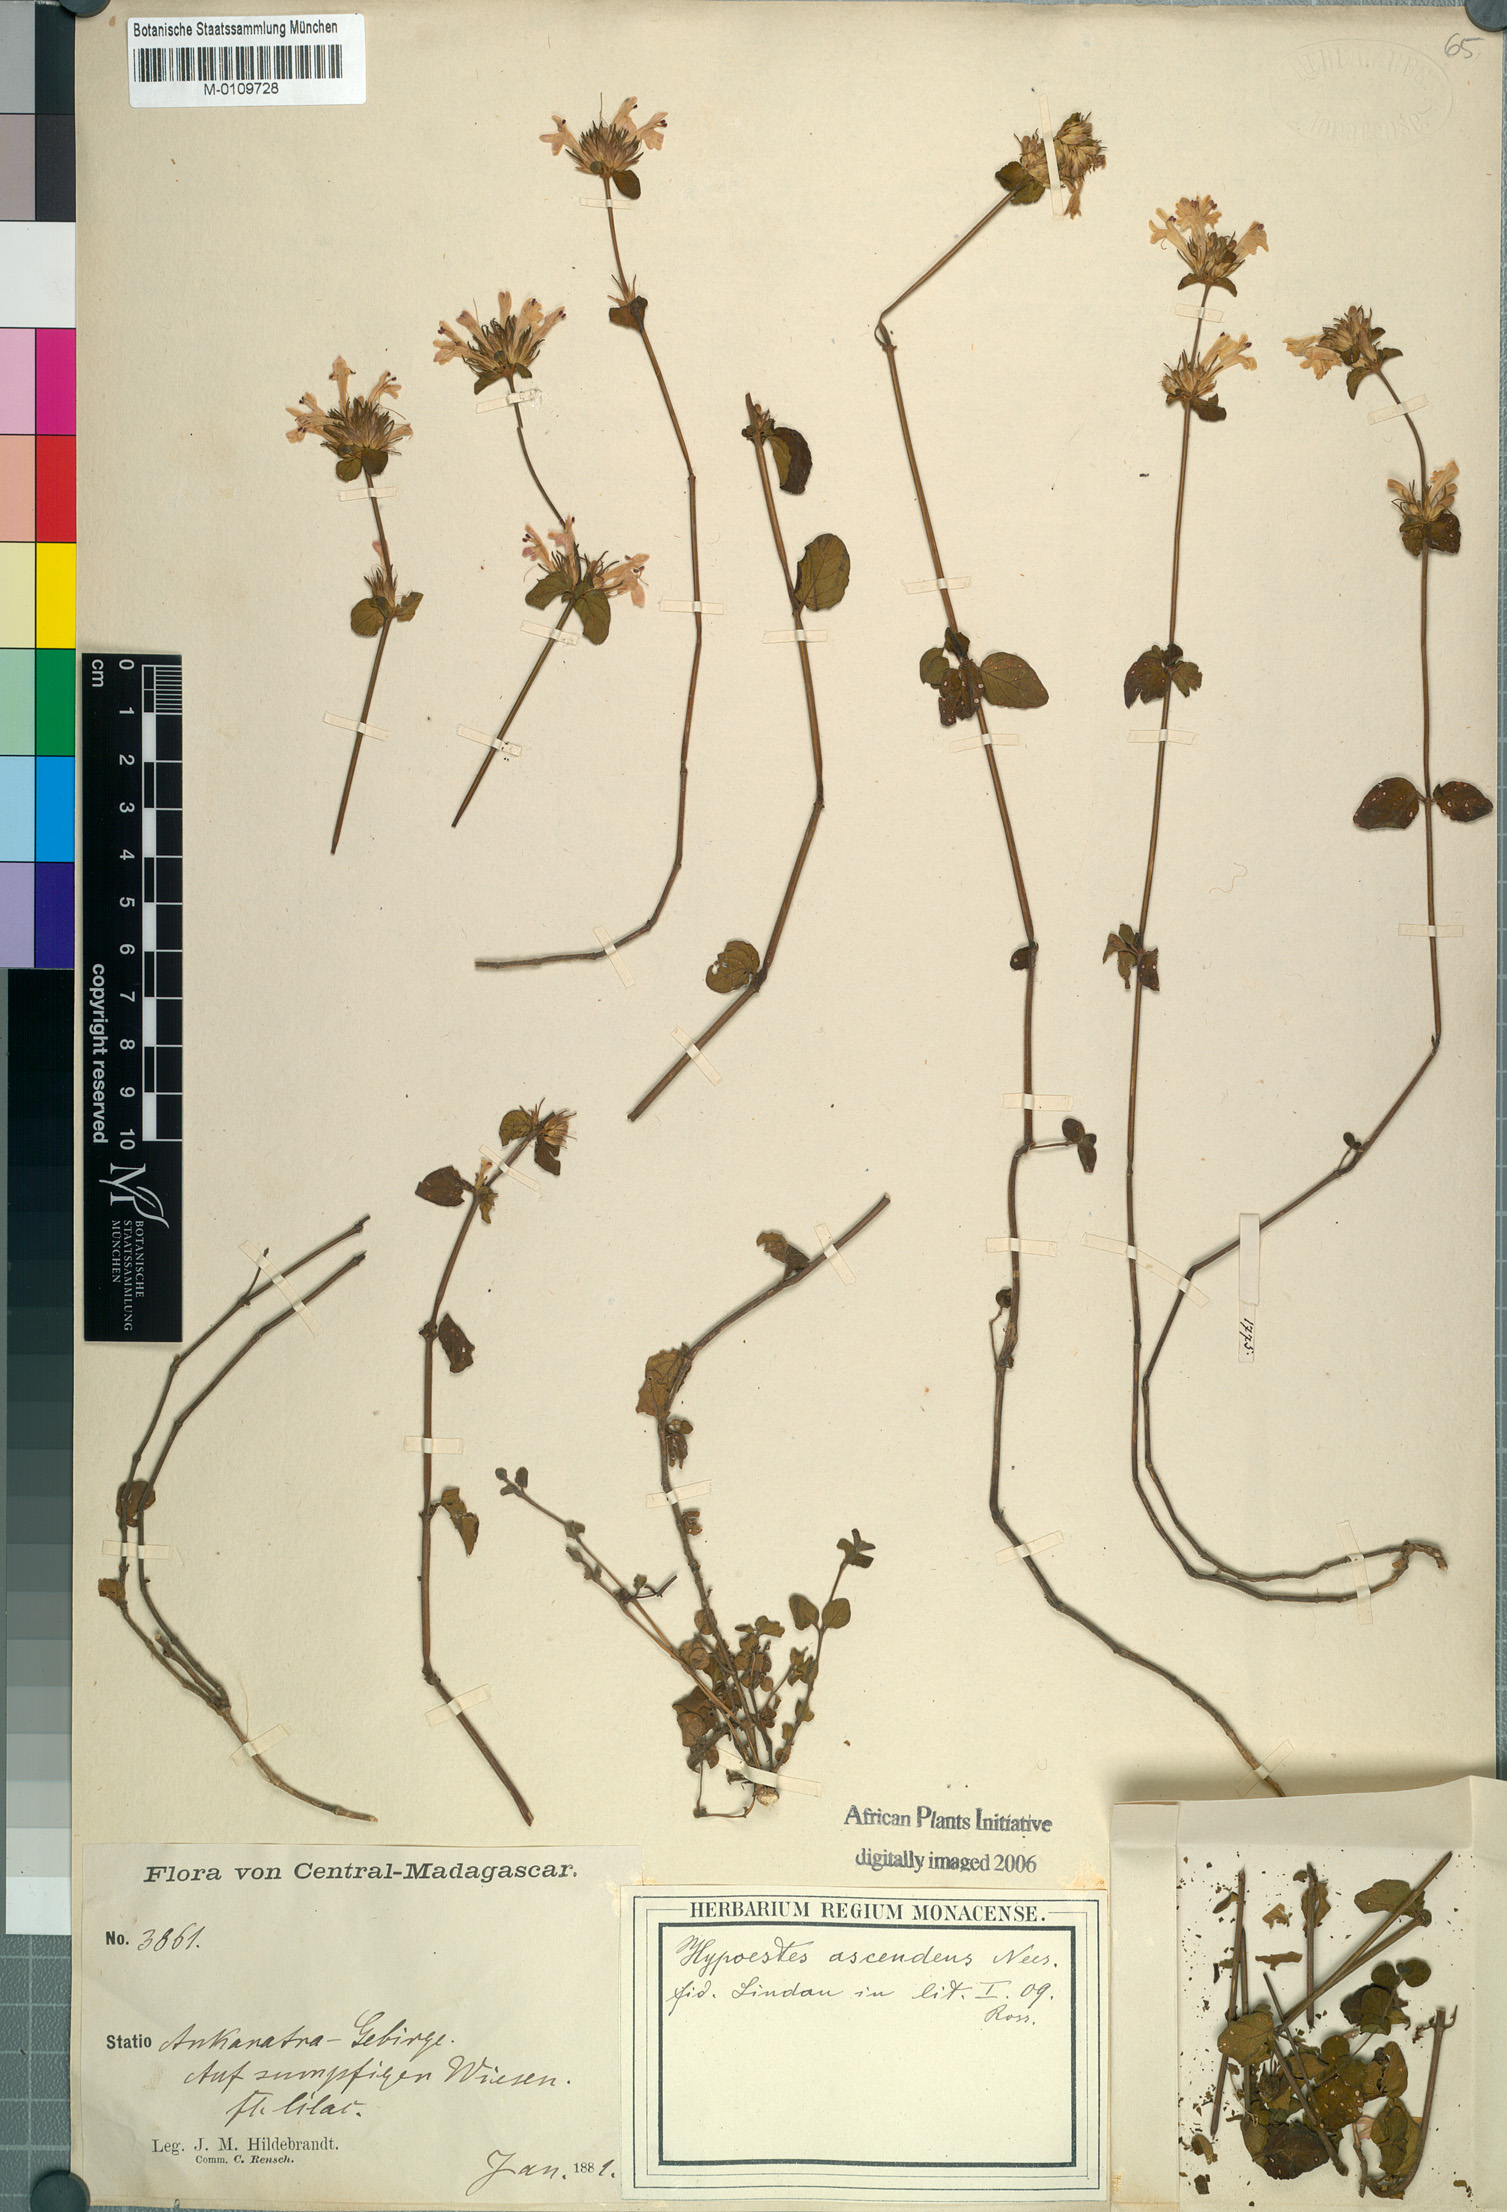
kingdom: Plantae
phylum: Tracheophyta
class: Magnoliopsida
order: Lamiales
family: Acanthaceae
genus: Hypoestes
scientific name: Hypoestes serpens
